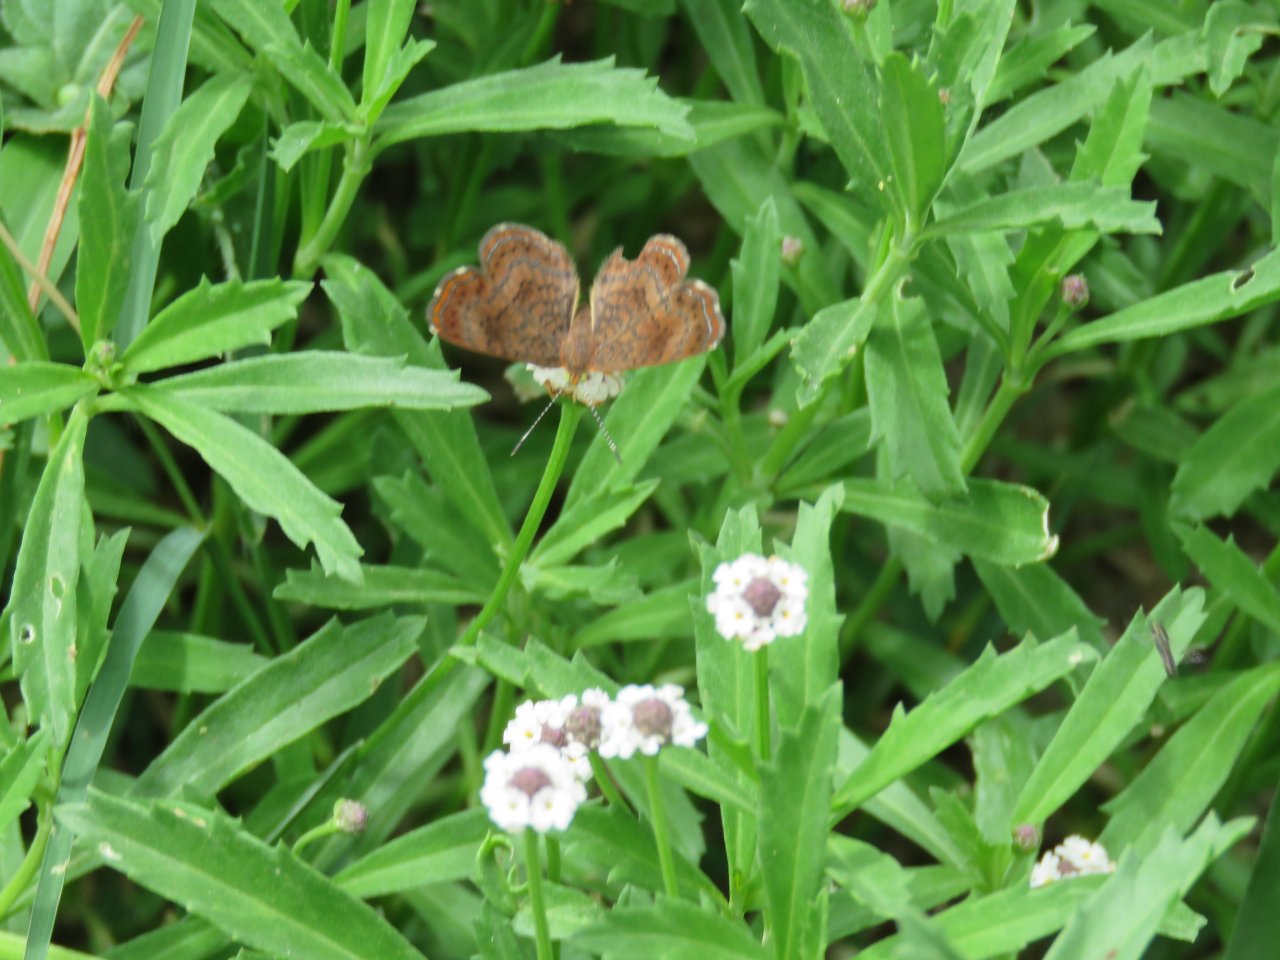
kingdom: Animalia
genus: Calephelis
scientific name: Calephelis perditalis
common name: Rounded Metalmark
